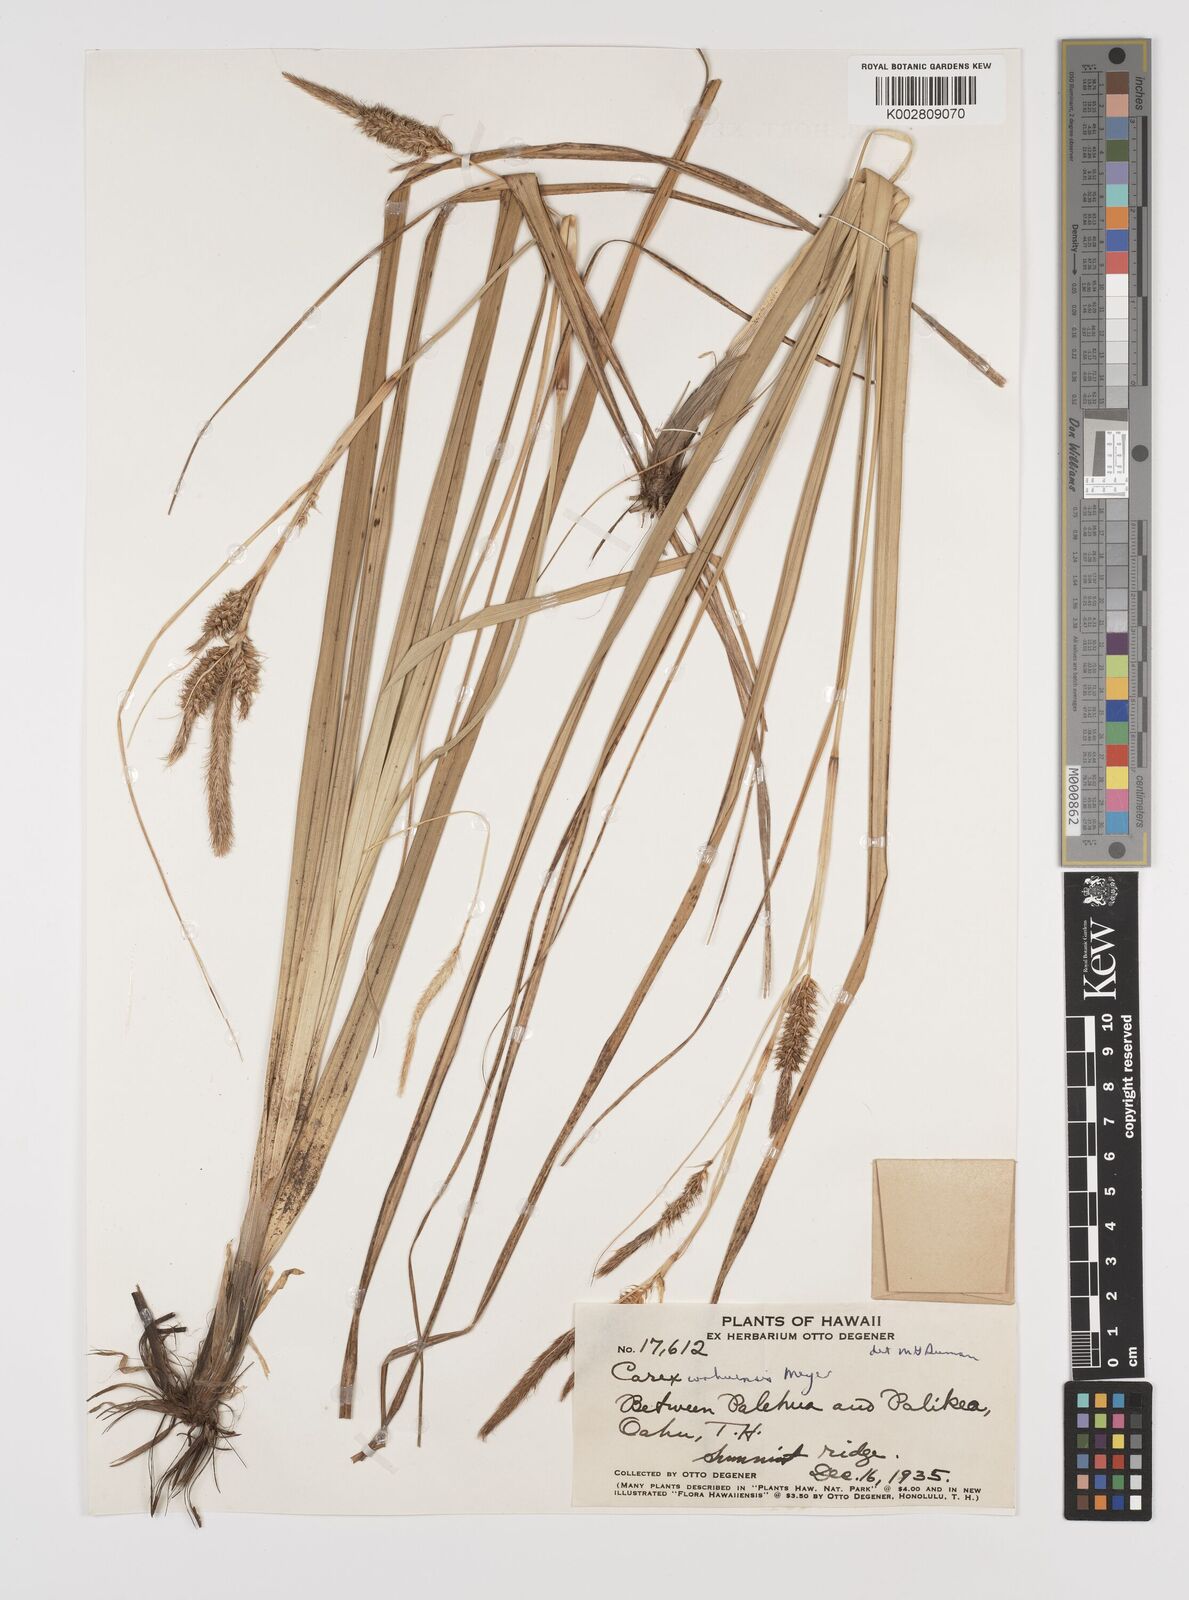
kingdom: Plantae
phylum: Tracheophyta
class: Liliopsida
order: Poales
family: Cyperaceae
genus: Carex
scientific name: Carex wahuensis
